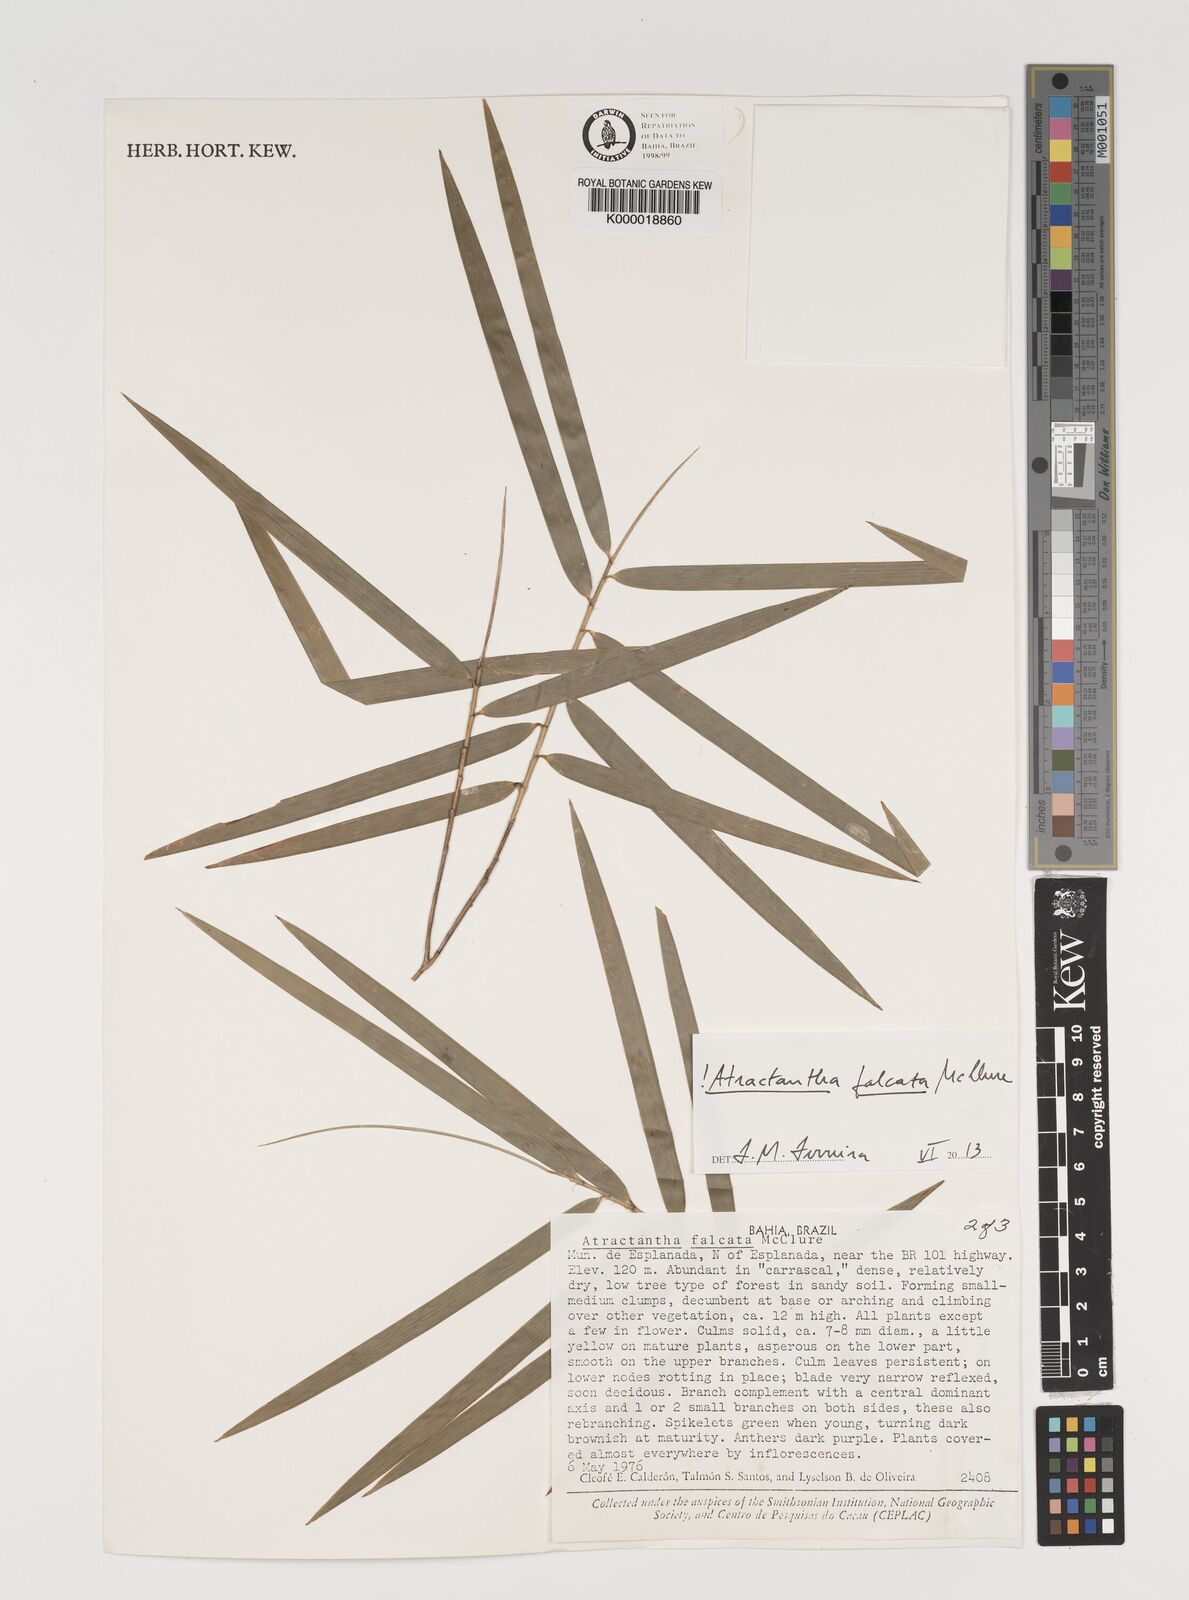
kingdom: Plantae
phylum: Tracheophyta
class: Liliopsida
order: Poales
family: Poaceae
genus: Atractantha
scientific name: Atractantha falcata
